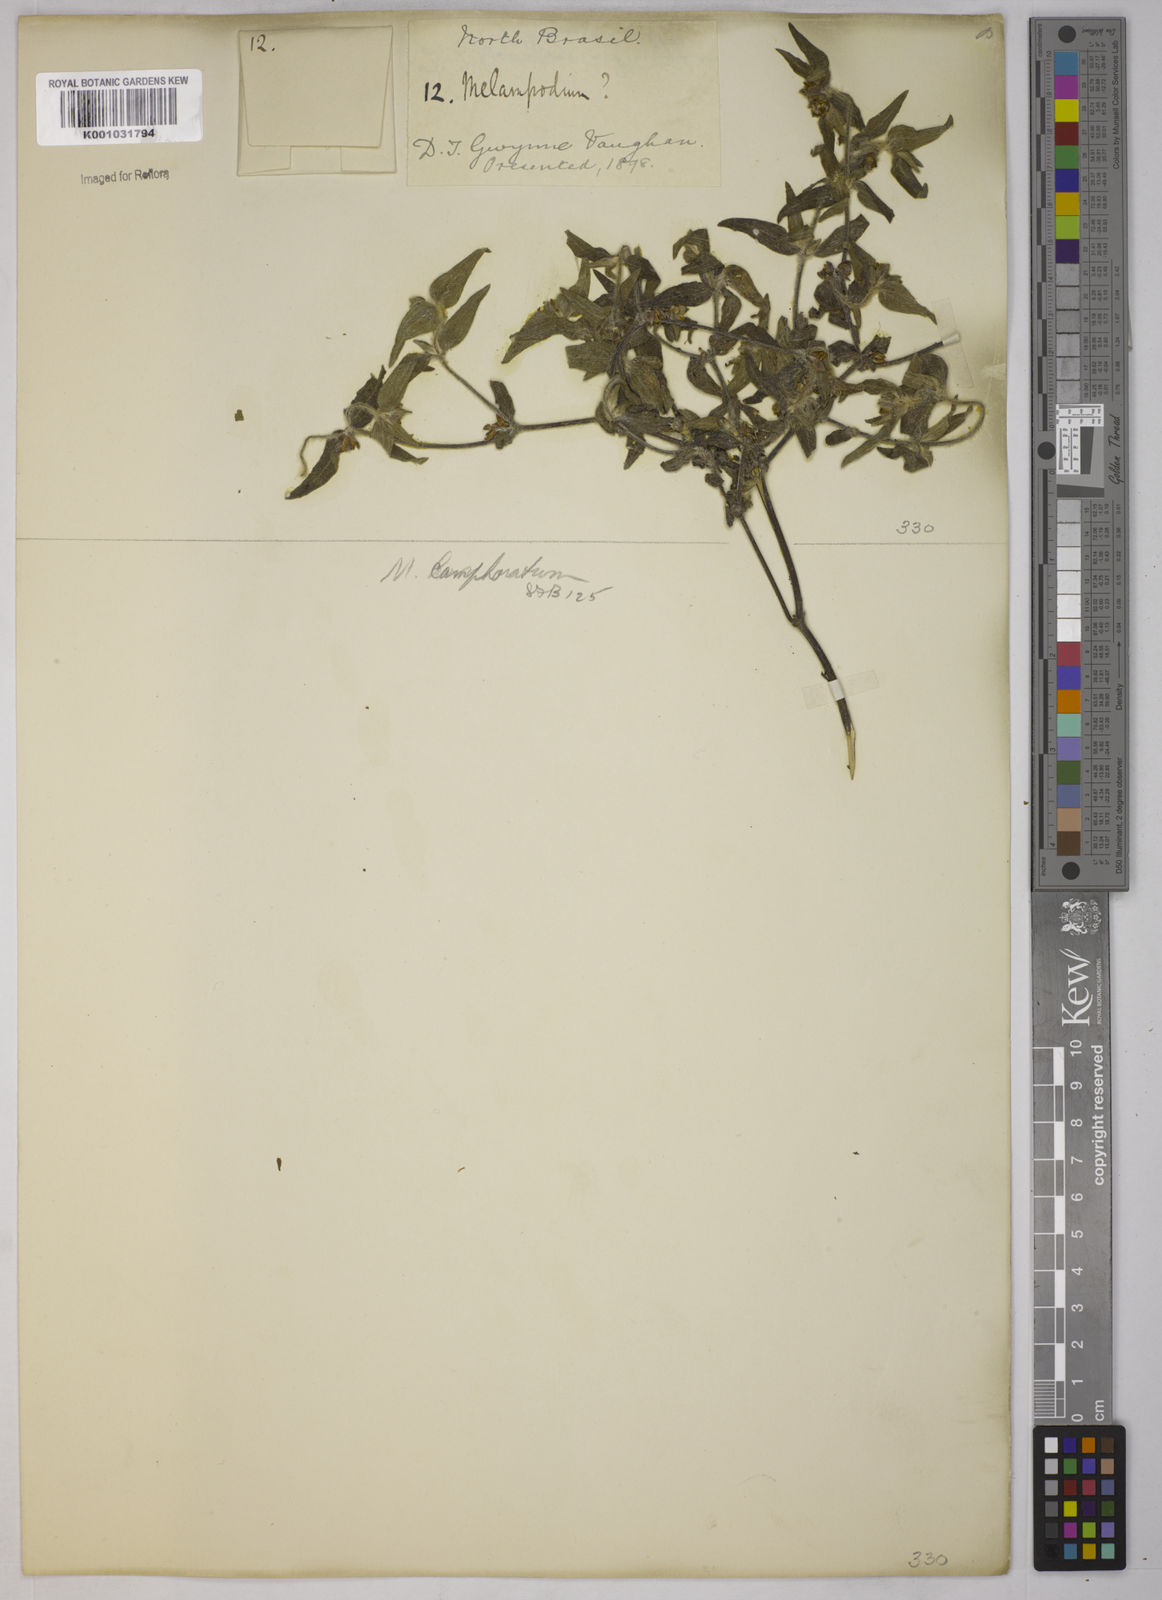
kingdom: Plantae
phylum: Tracheophyta
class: Magnoliopsida
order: Asterales
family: Asteraceae
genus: Unxia
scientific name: Unxia camphorata
